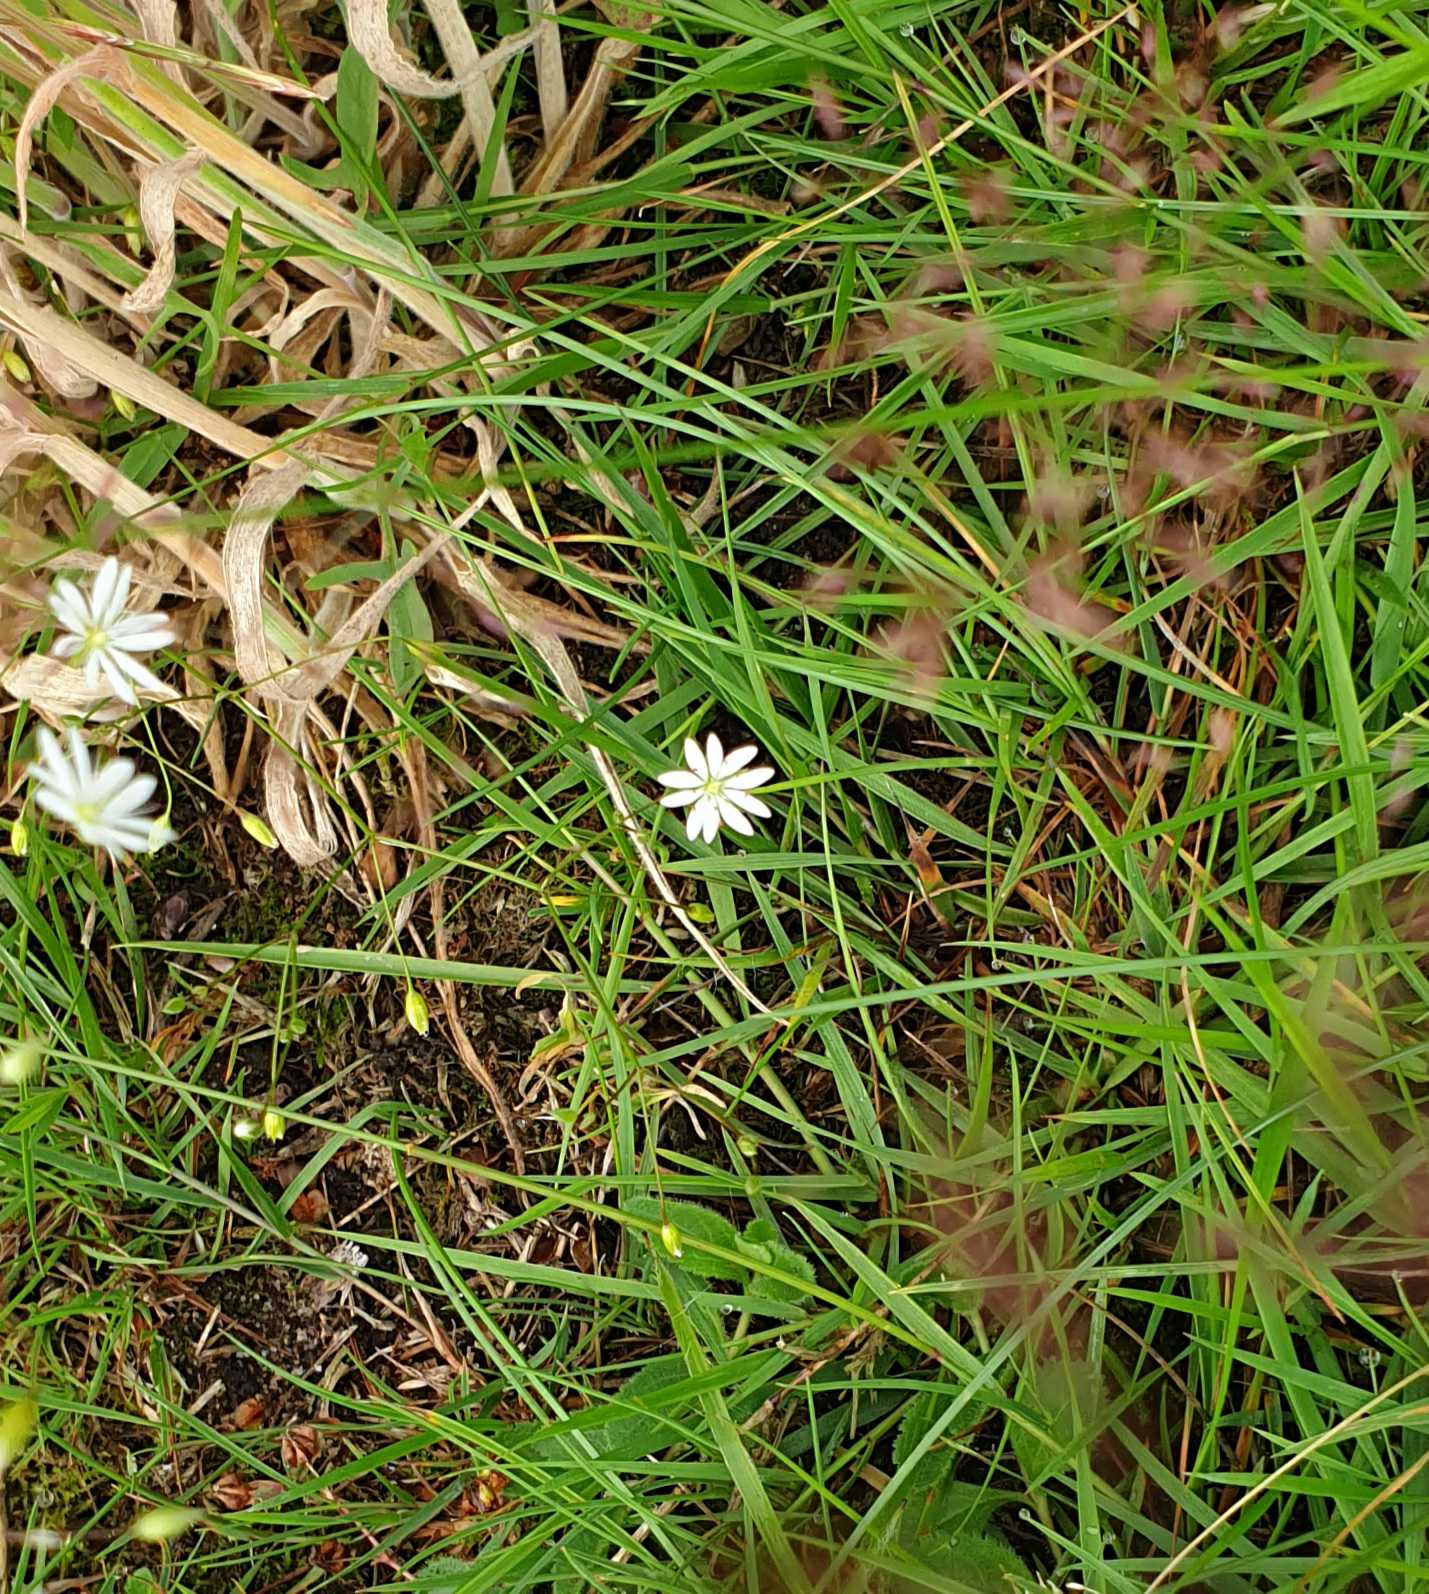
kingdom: Plantae
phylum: Tracheophyta
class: Magnoliopsida
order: Caryophyllales
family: Caryophyllaceae
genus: Stellaria
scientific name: Stellaria graminea
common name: Græsbladet fladstjerne
